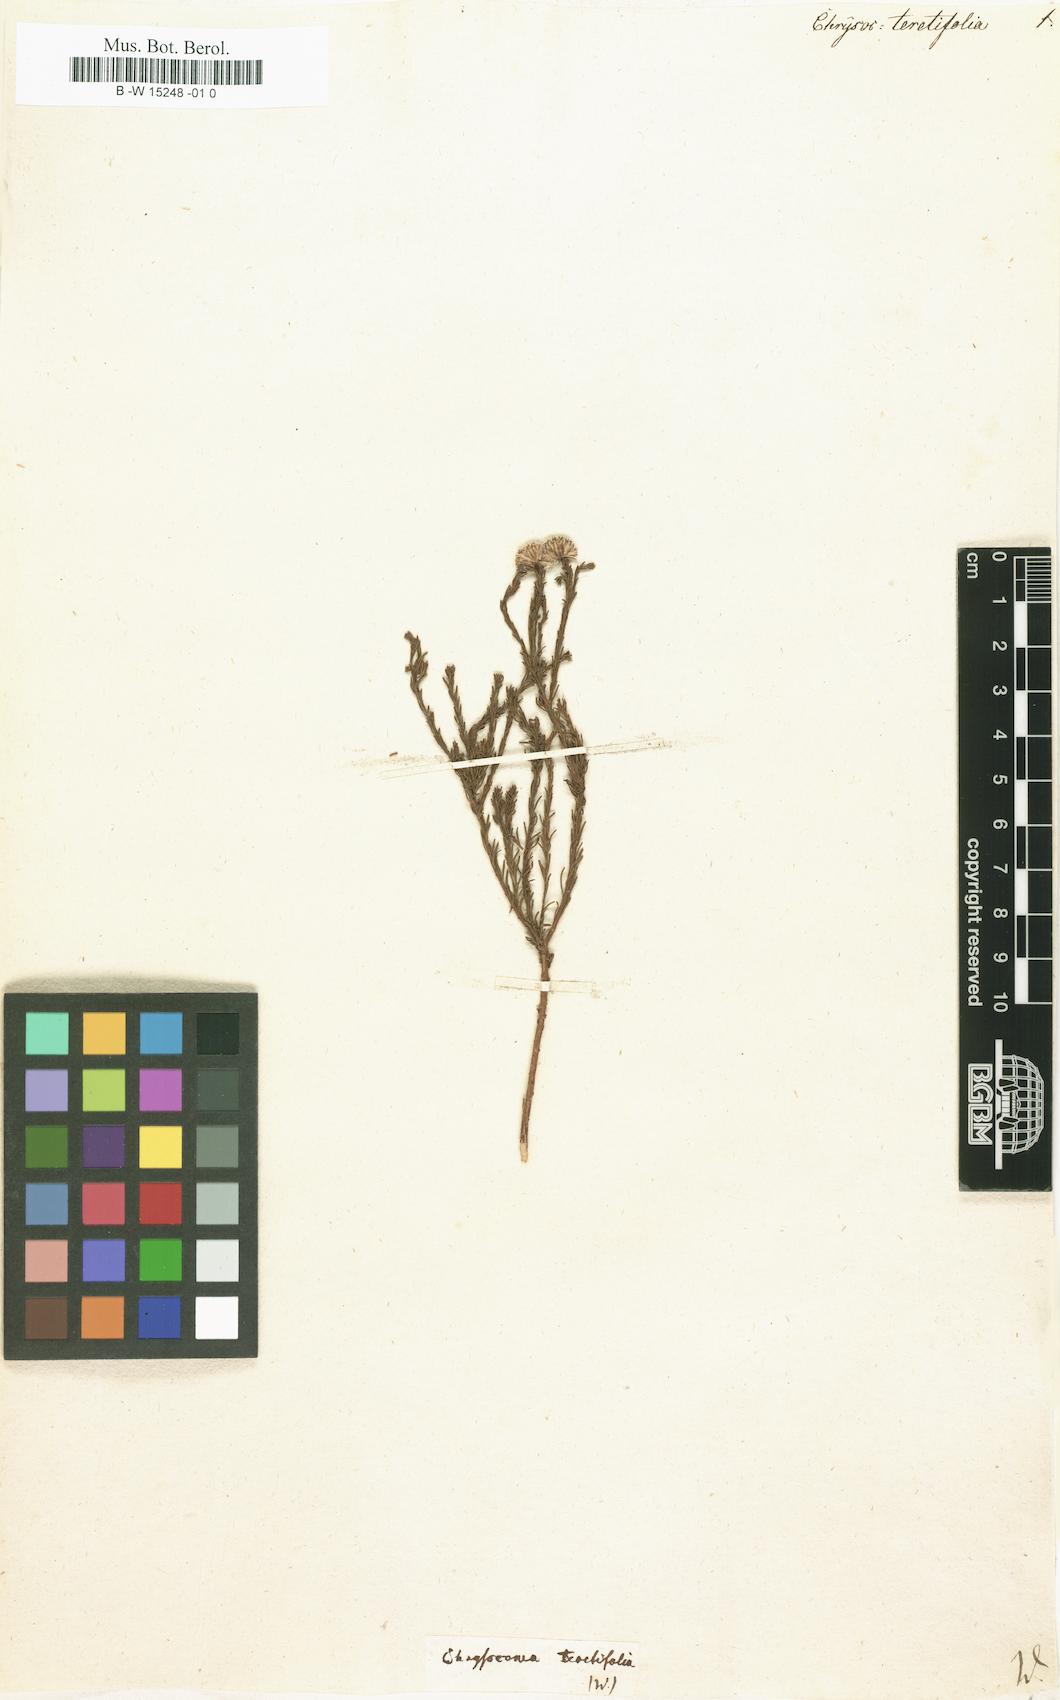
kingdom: Plantae
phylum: Tracheophyta
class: Magnoliopsida
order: Asterales
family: Asteraceae
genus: Chrysocoma
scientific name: Chrysocoma
